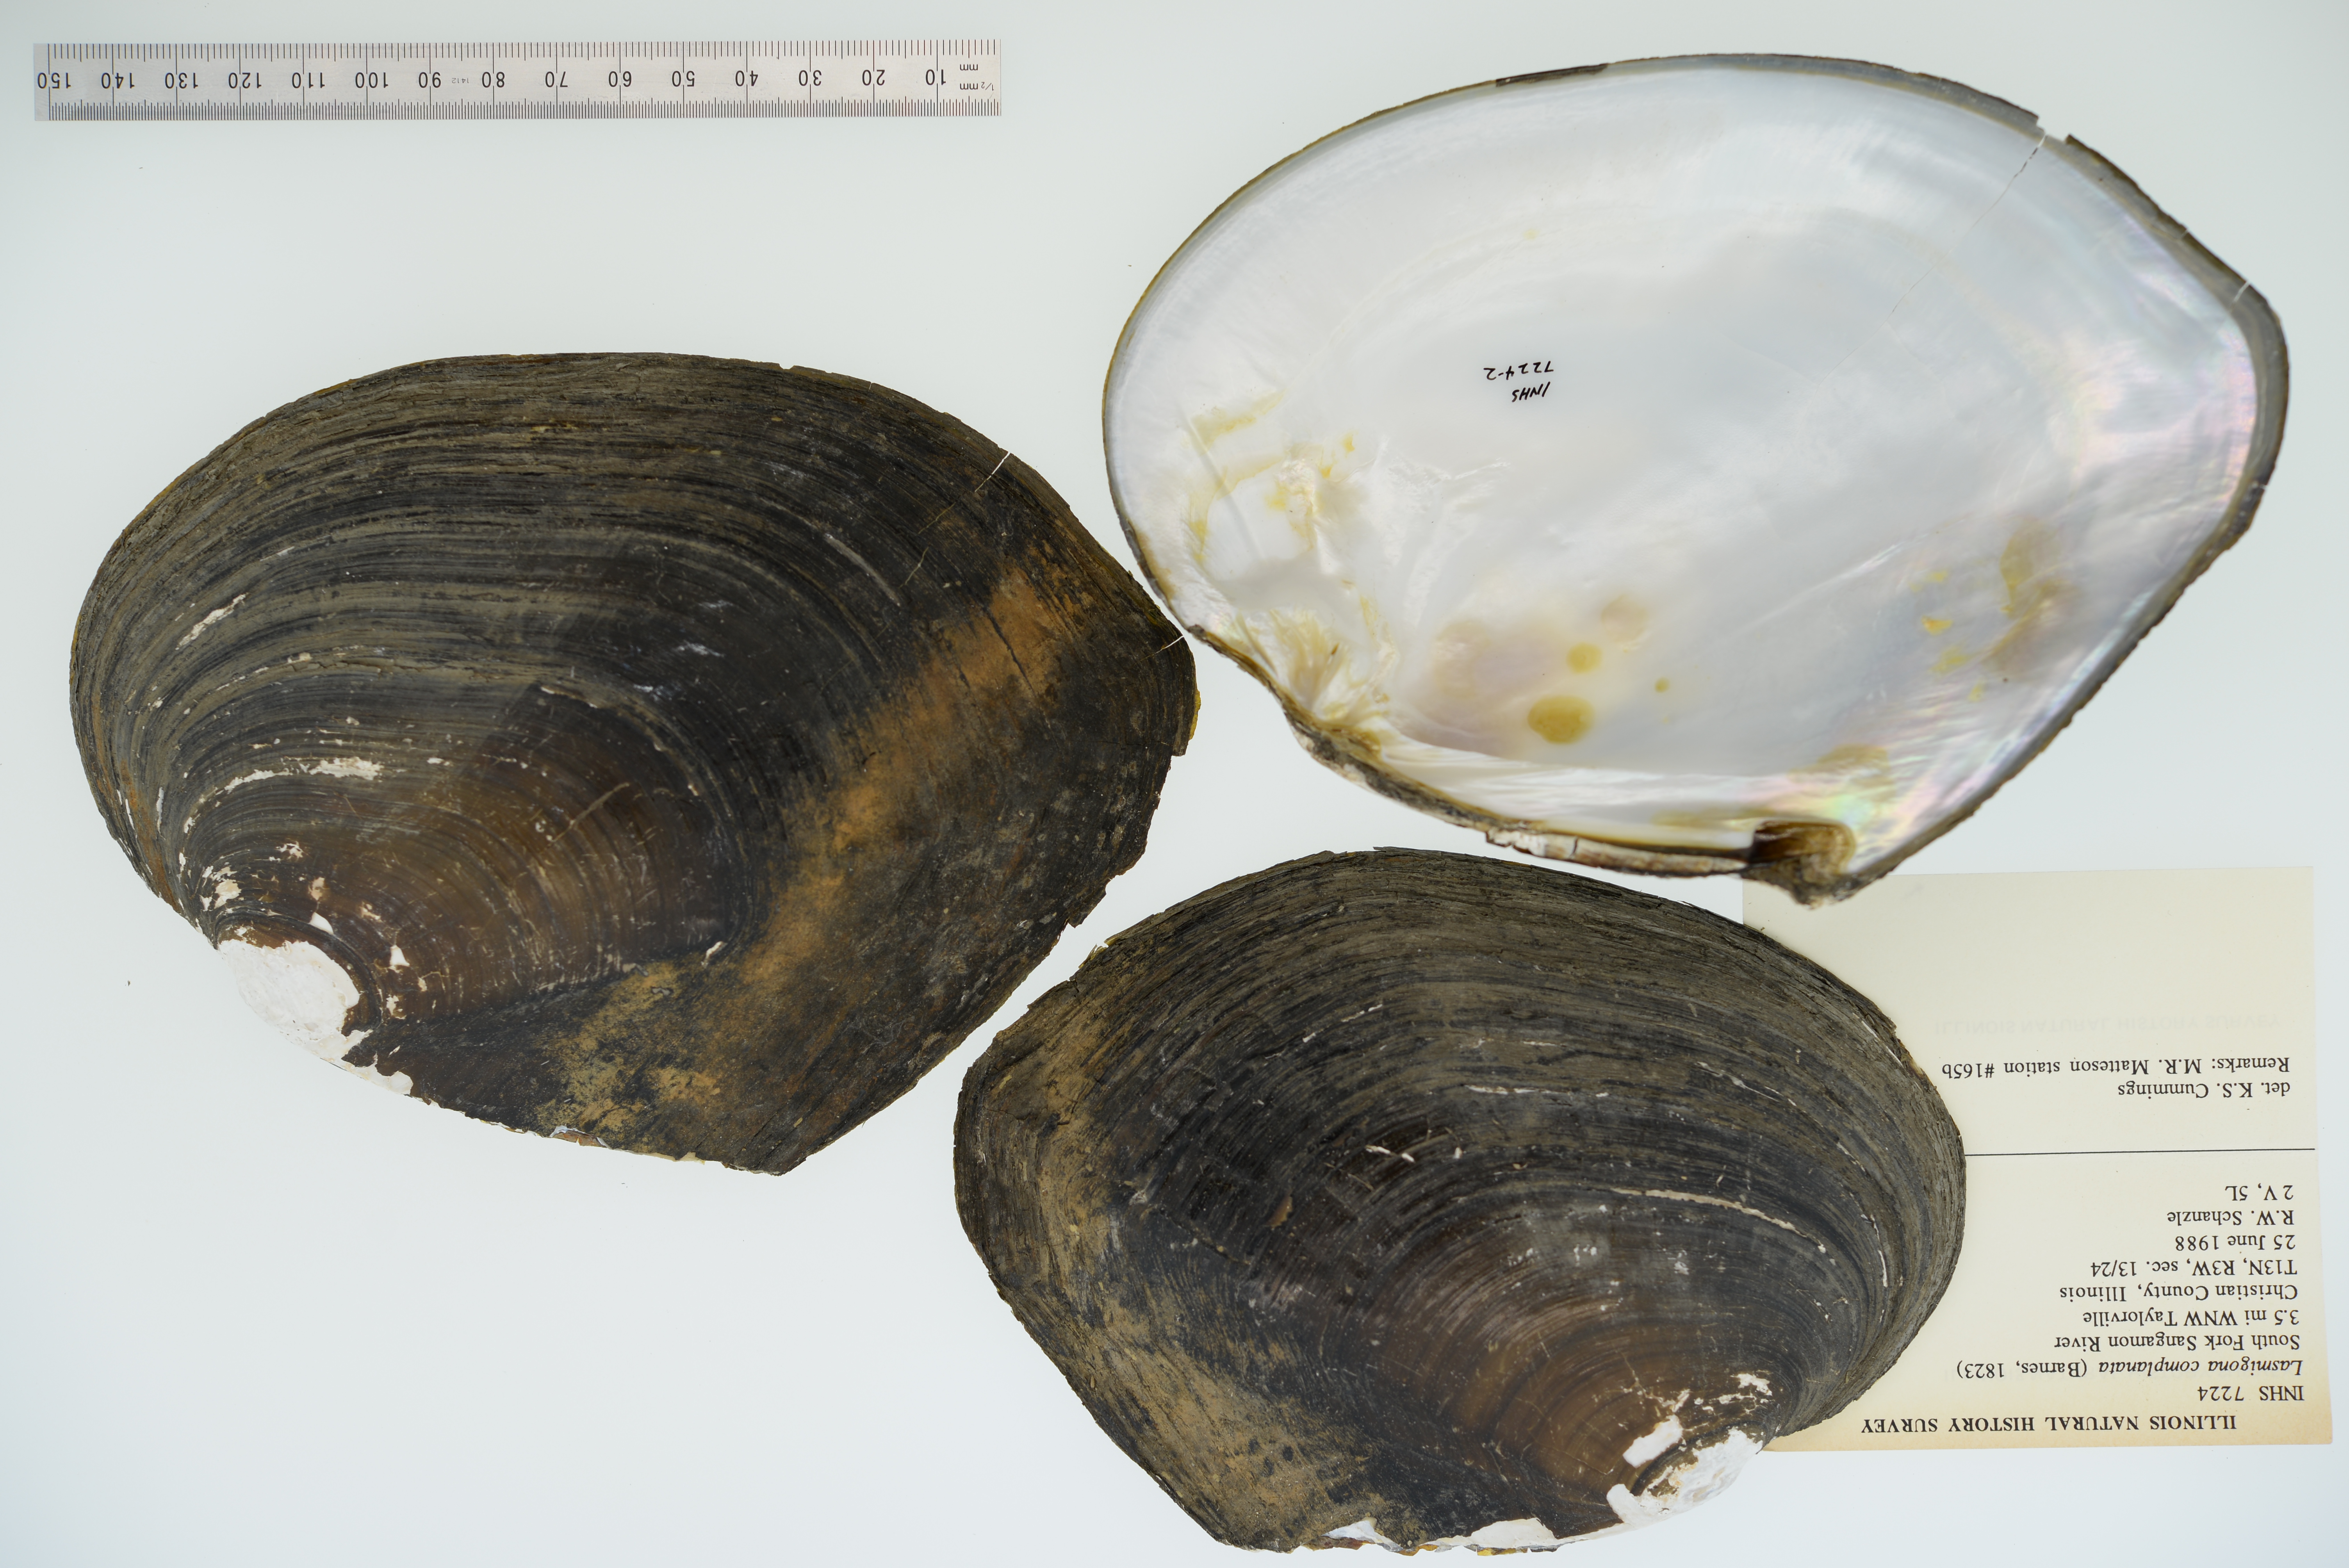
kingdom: Animalia
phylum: Mollusca
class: Bivalvia
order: Unionida
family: Unionidae
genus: Lasmigona
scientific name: Lasmigona complanata
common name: White heelsplitter
